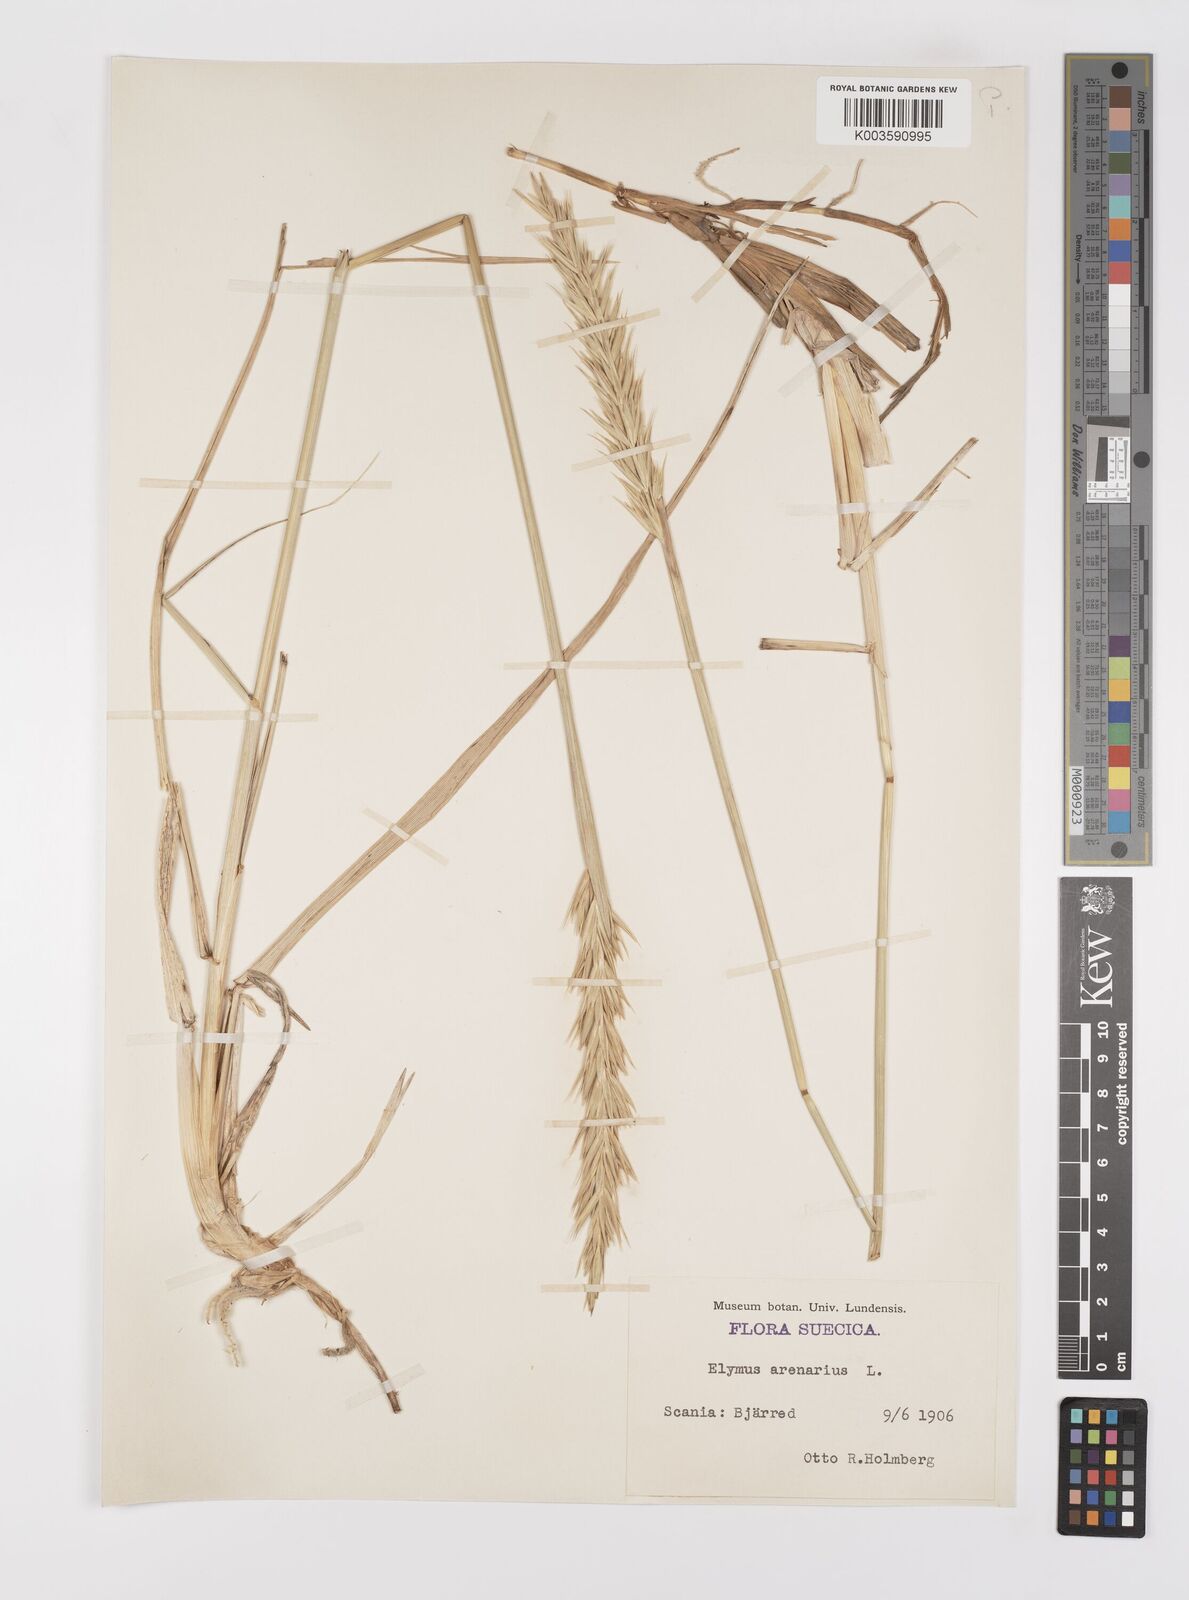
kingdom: Plantae
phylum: Tracheophyta
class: Liliopsida
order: Poales
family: Poaceae
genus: Leymus
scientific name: Leymus arenarius
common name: Lyme-grass
